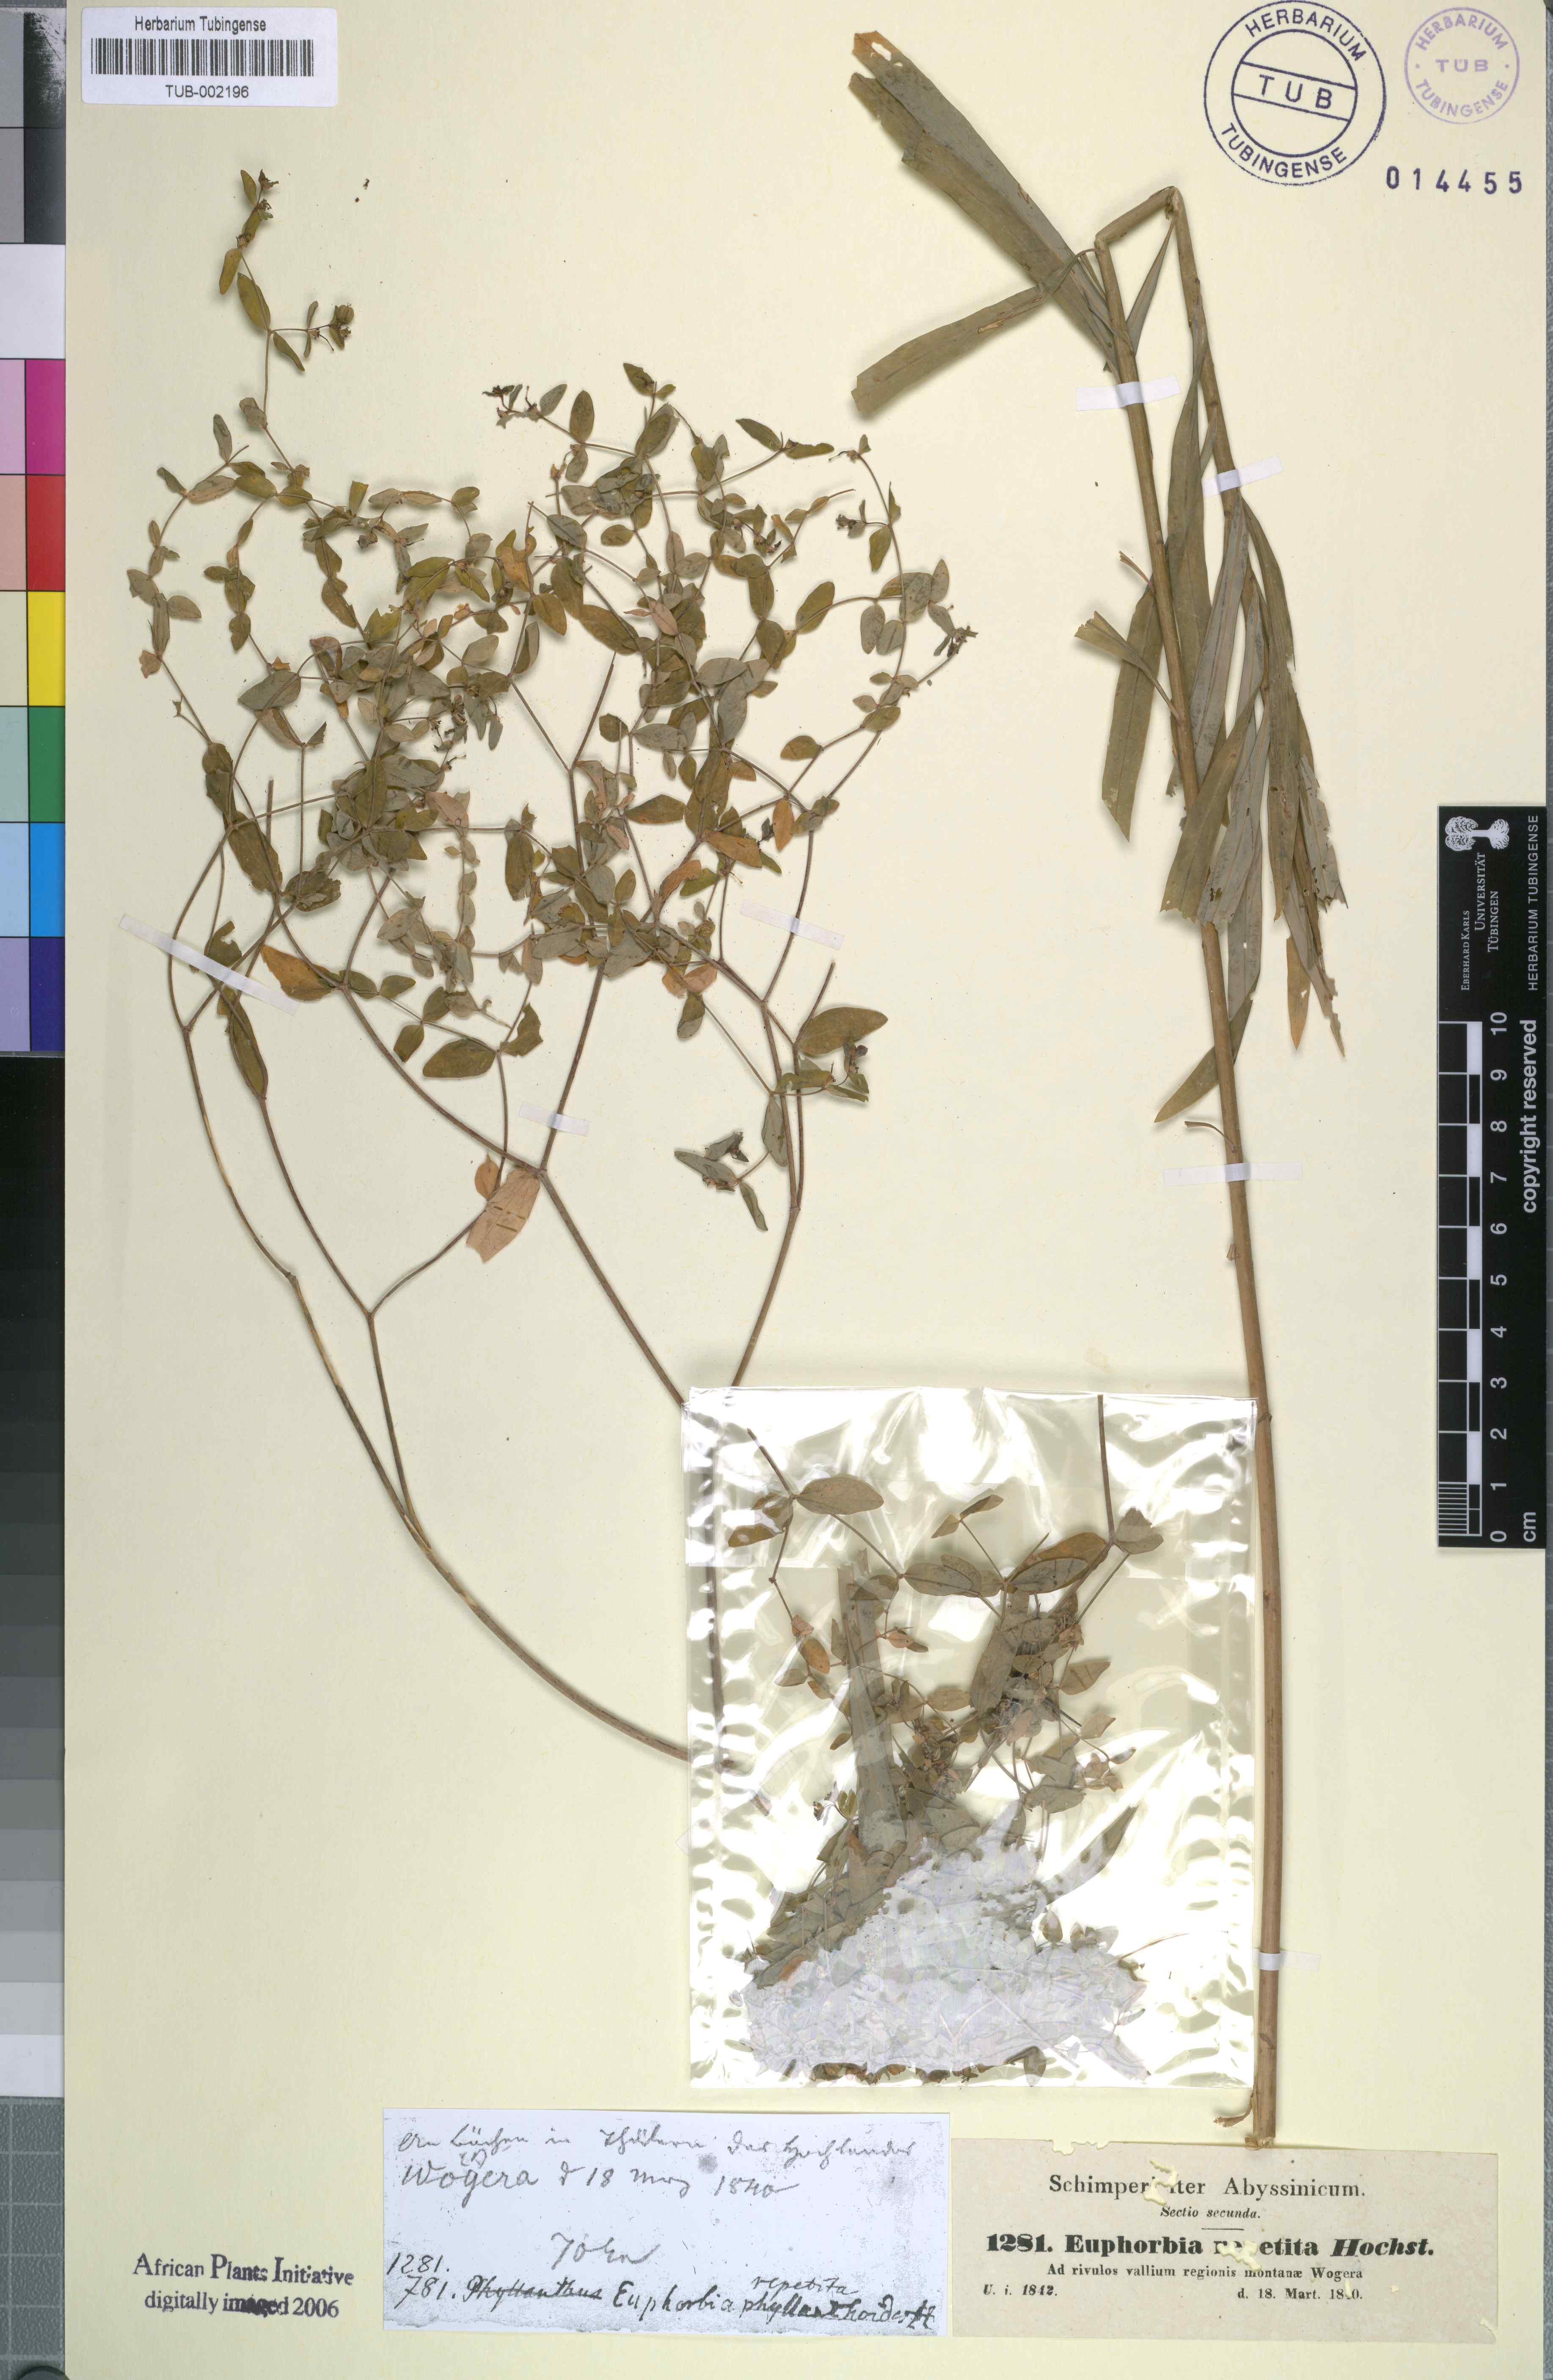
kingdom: Plantae
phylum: Tracheophyta
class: Magnoliopsida
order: Malpighiales
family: Euphorbiaceae
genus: Euphorbia
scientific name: Euphorbia repetita
